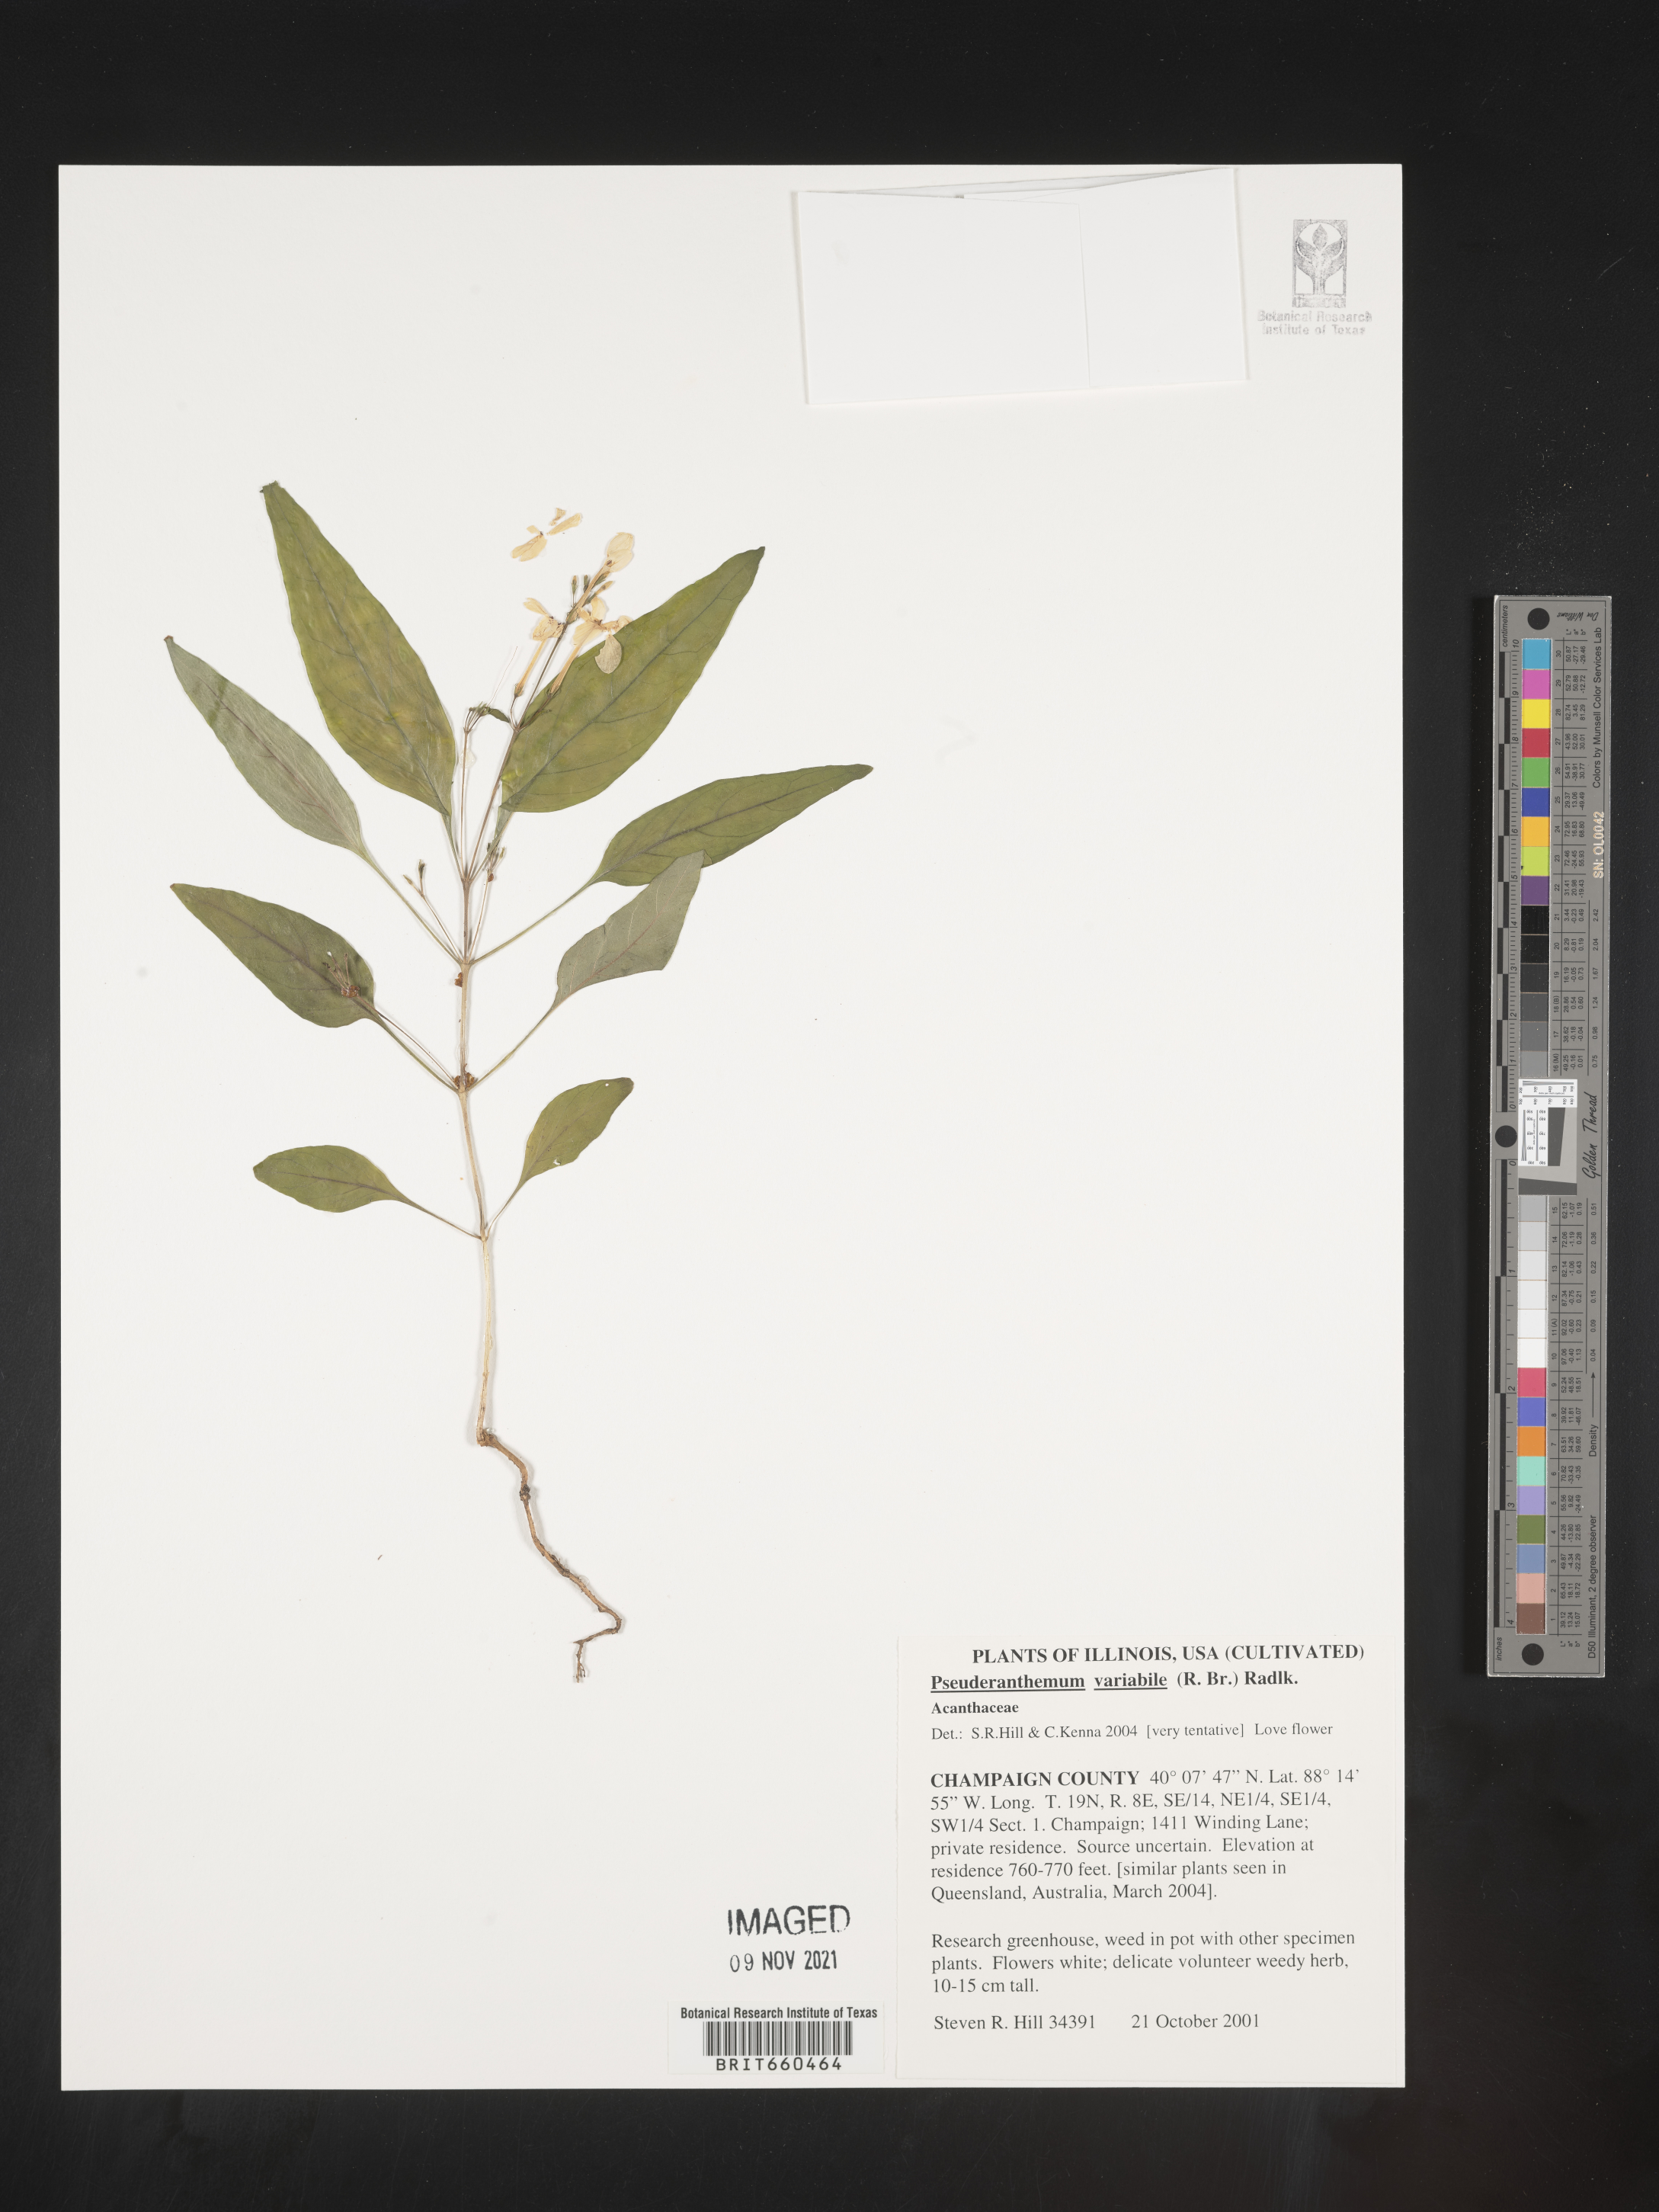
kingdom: Plantae
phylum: Tracheophyta
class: Magnoliopsida
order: Lamiales
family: Acanthaceae
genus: Pseuderanthemum
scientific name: Pseuderanthemum
